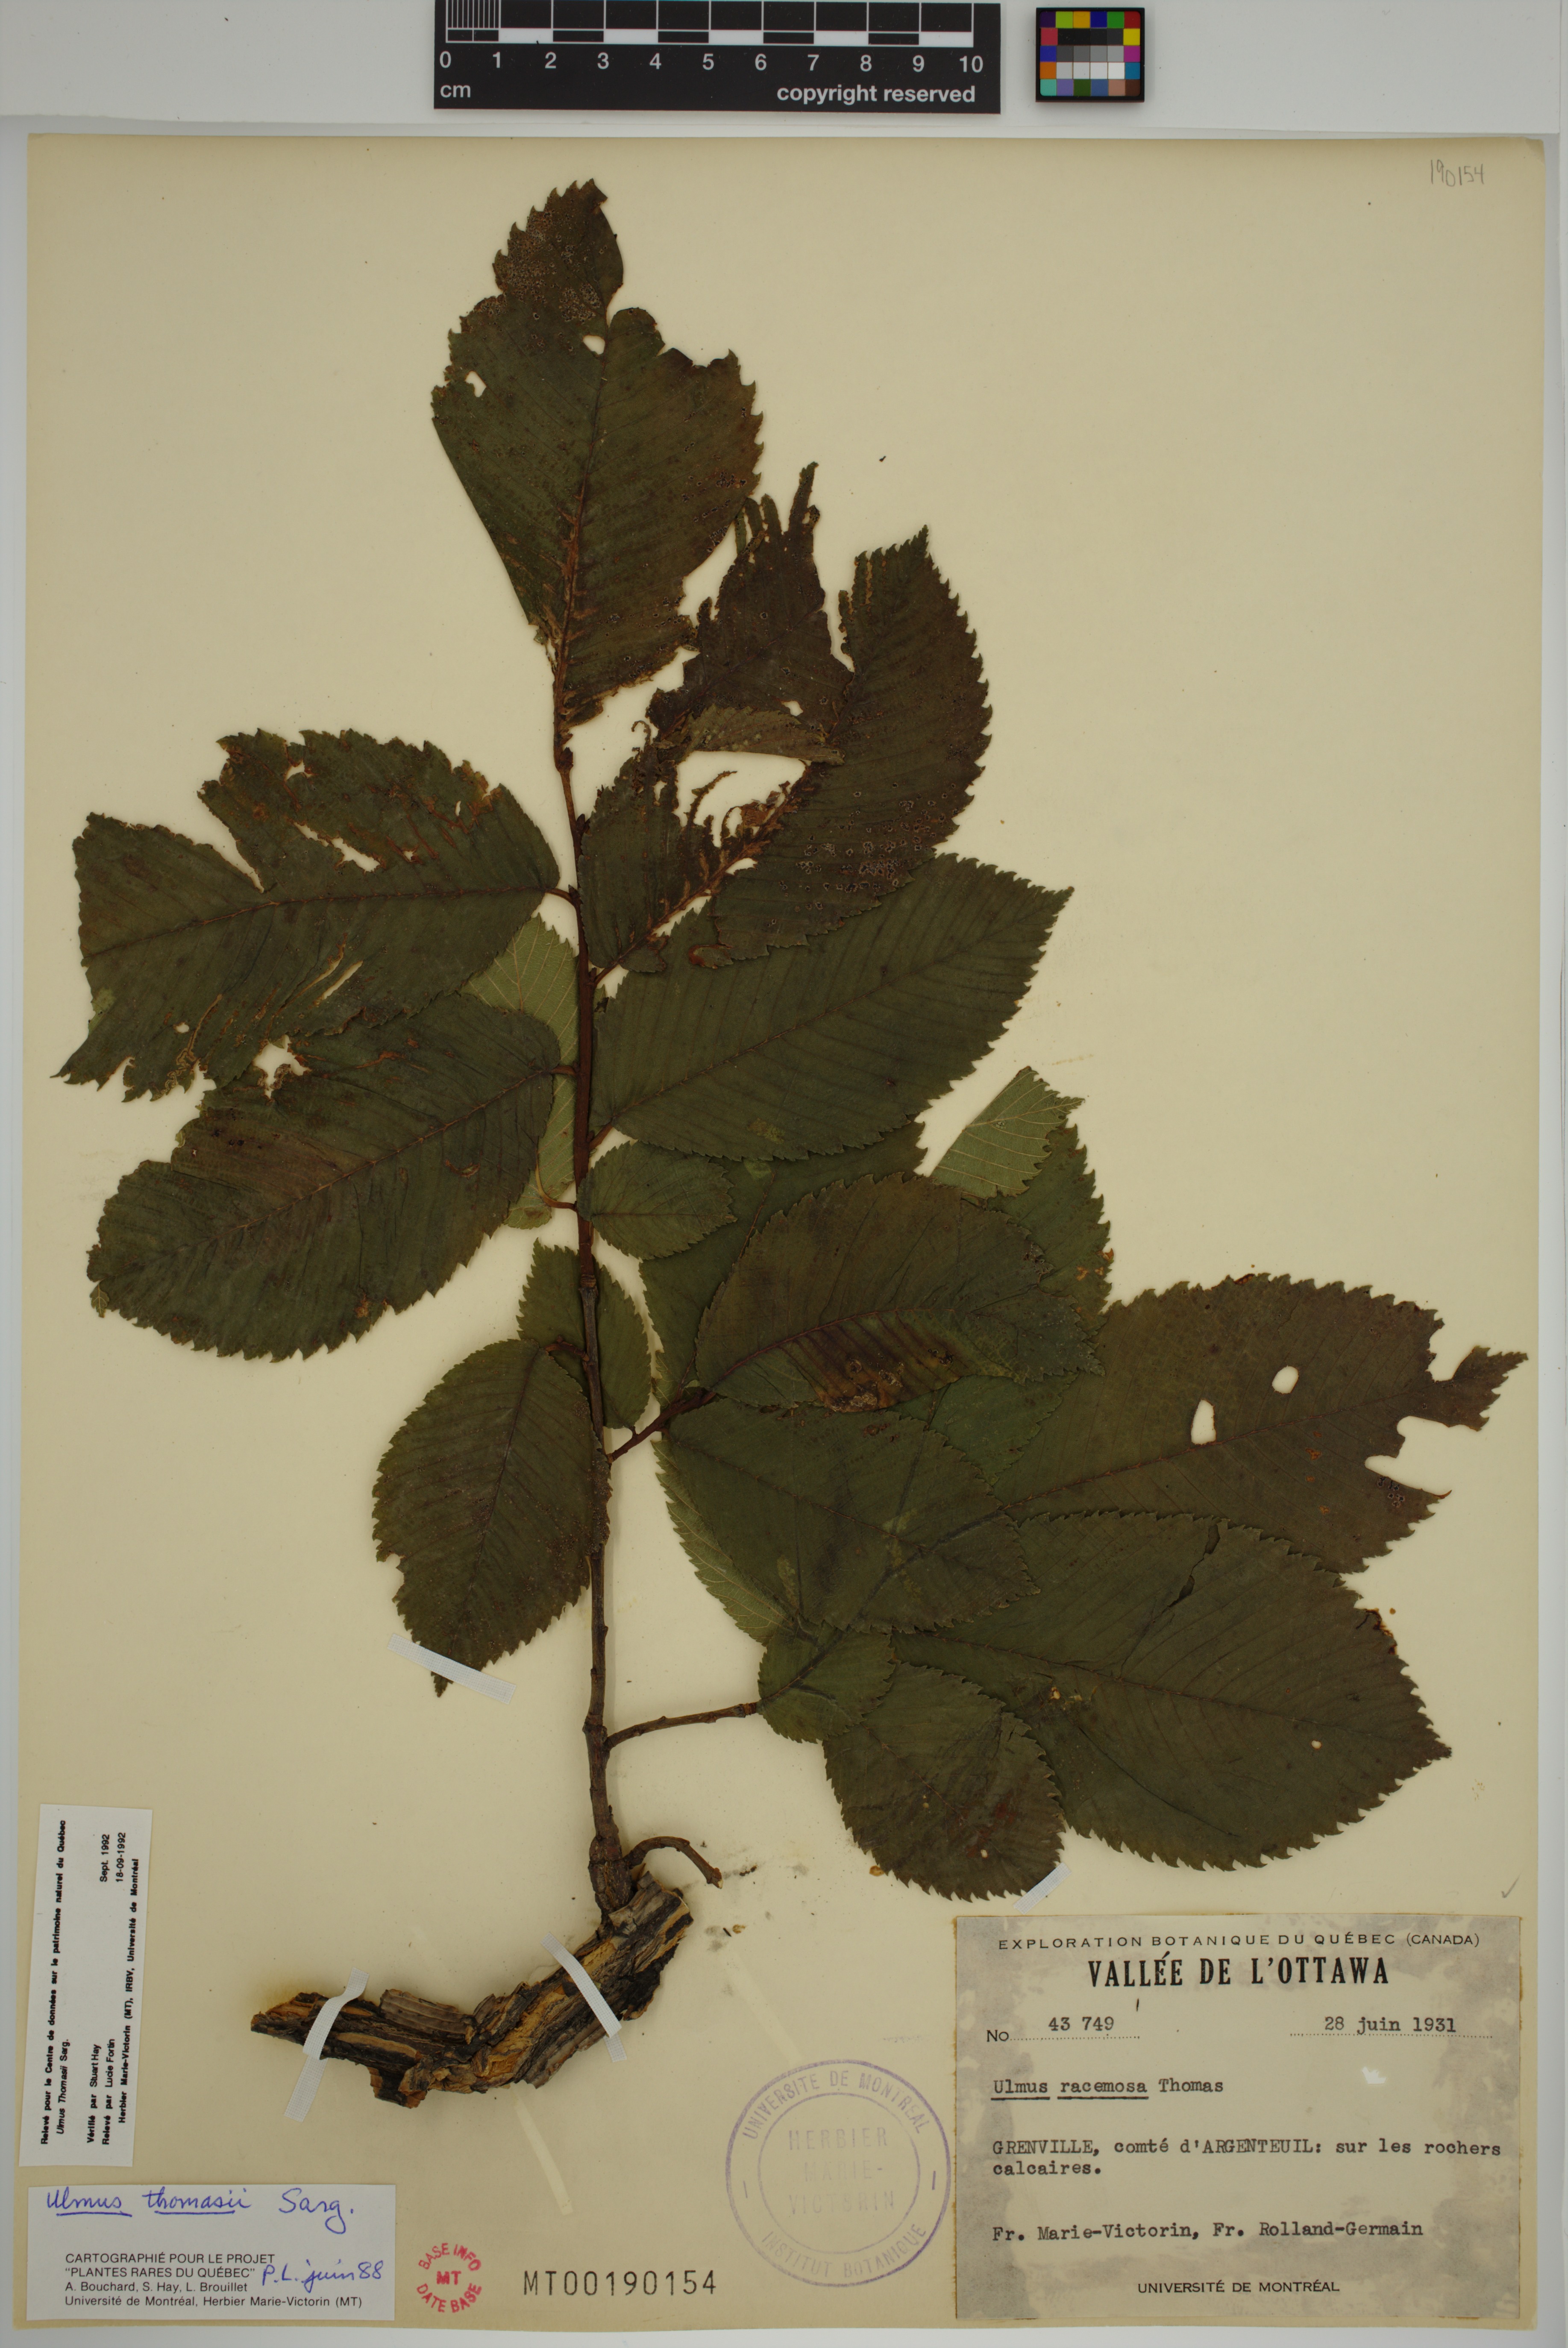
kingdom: Plantae
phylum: Tracheophyta
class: Magnoliopsida
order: Rosales
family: Ulmaceae
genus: Ulmus
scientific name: Ulmus thomasii
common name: Rock elm
